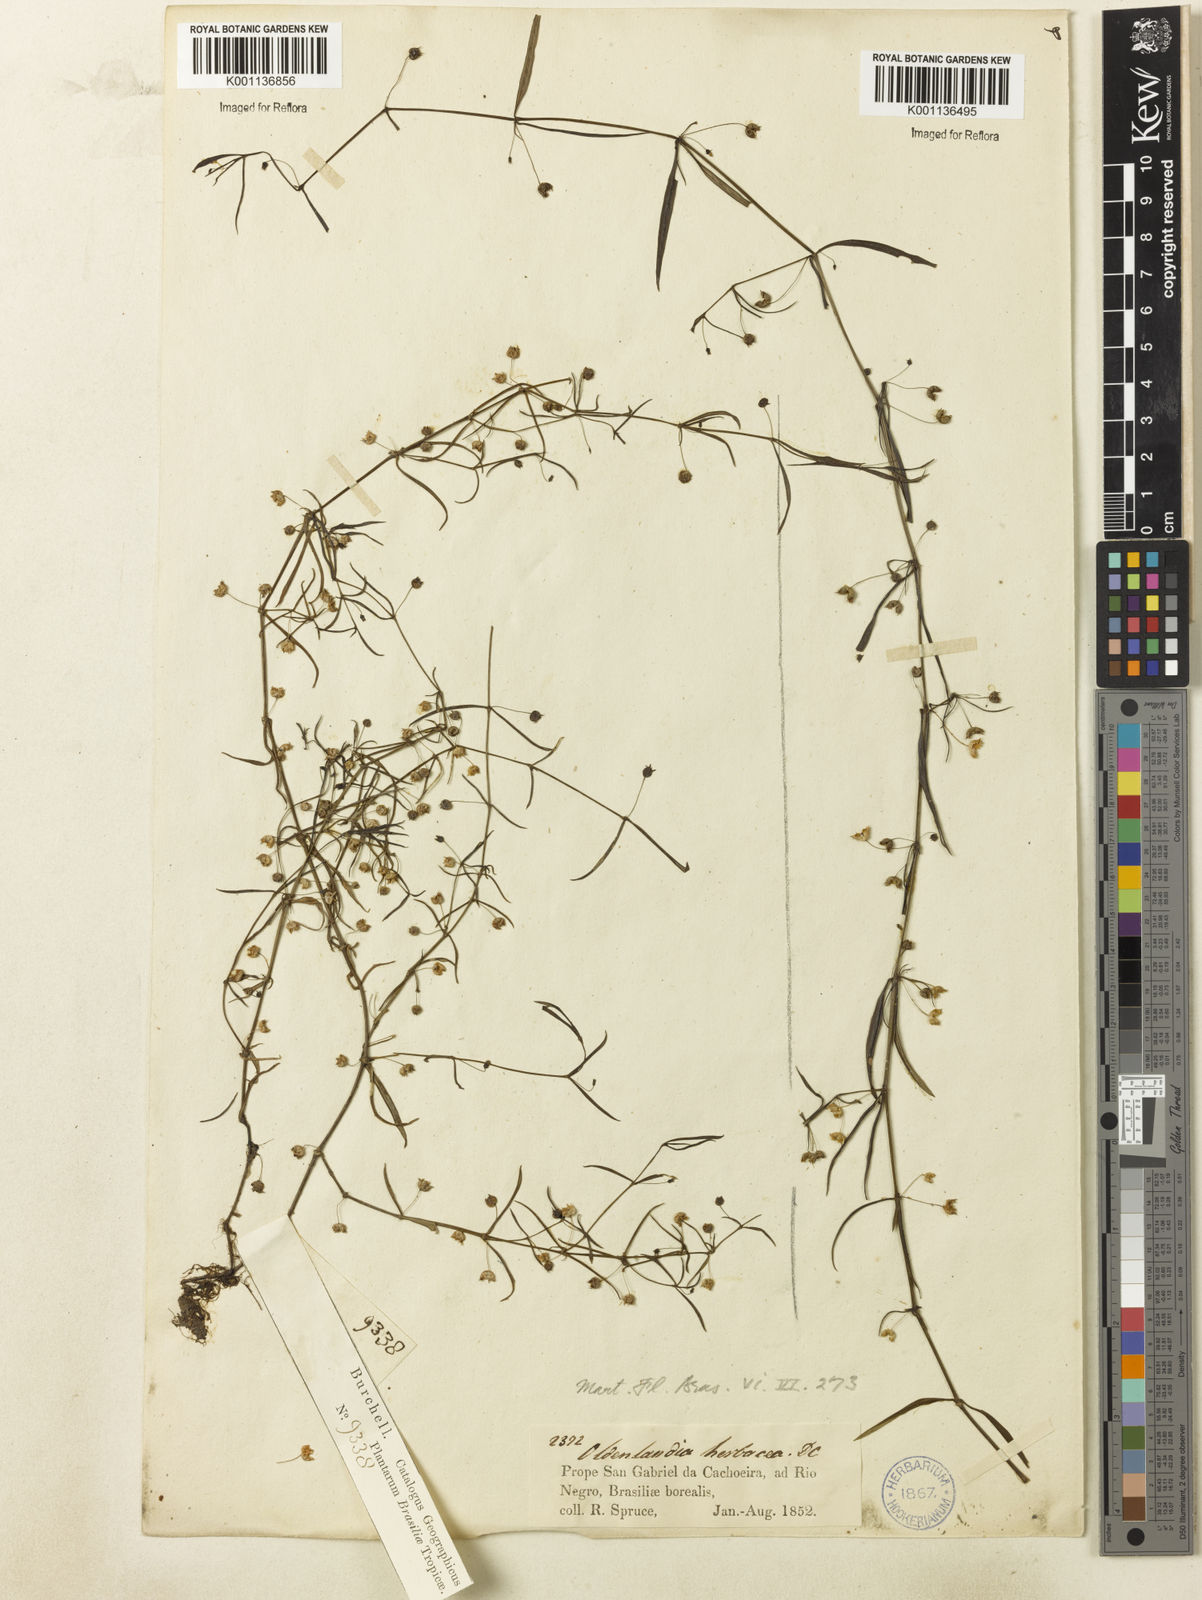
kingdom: Plantae
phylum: Tracheophyta
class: Magnoliopsida
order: Gentianales
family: Rubiaceae
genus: Oldenlandia
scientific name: Oldenlandia lancifolia
